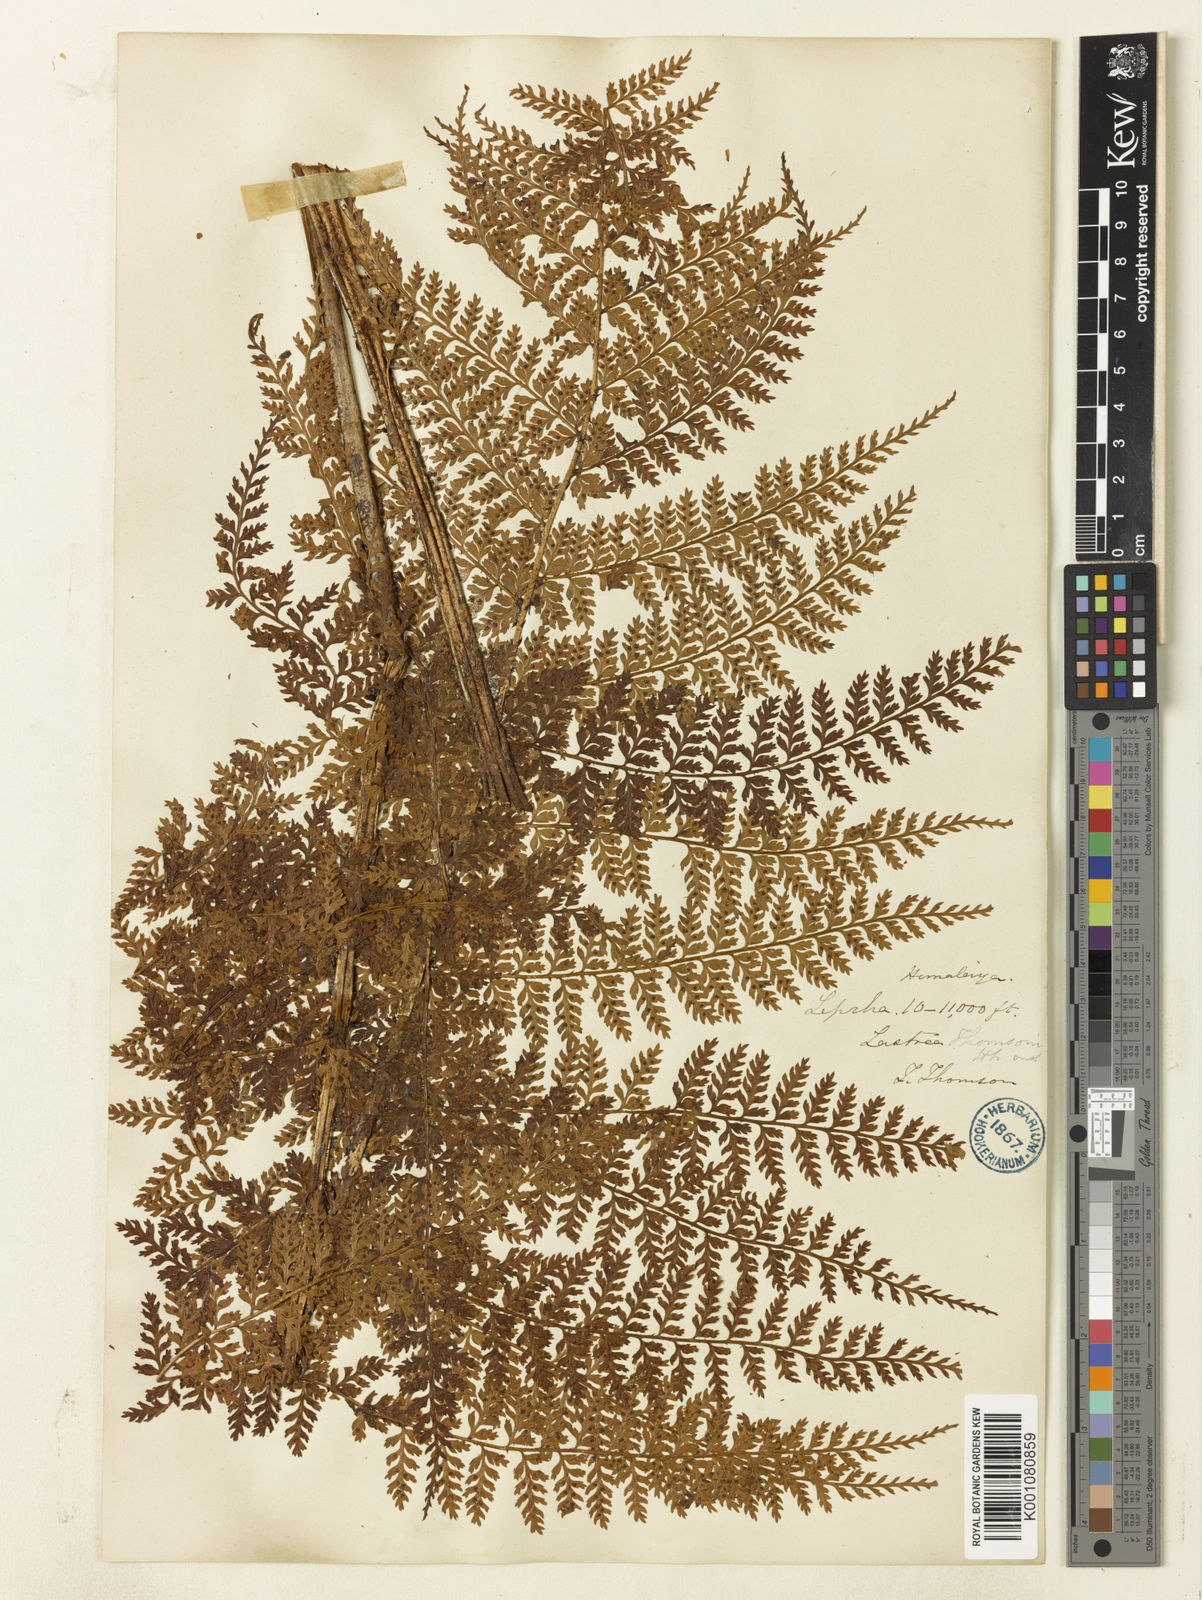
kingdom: Plantae
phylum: Tracheophyta
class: Polypodiopsida
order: Polypodiales
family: Dryopteridaceae
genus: Dryopteris
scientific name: Dryopteris sikkimensis
